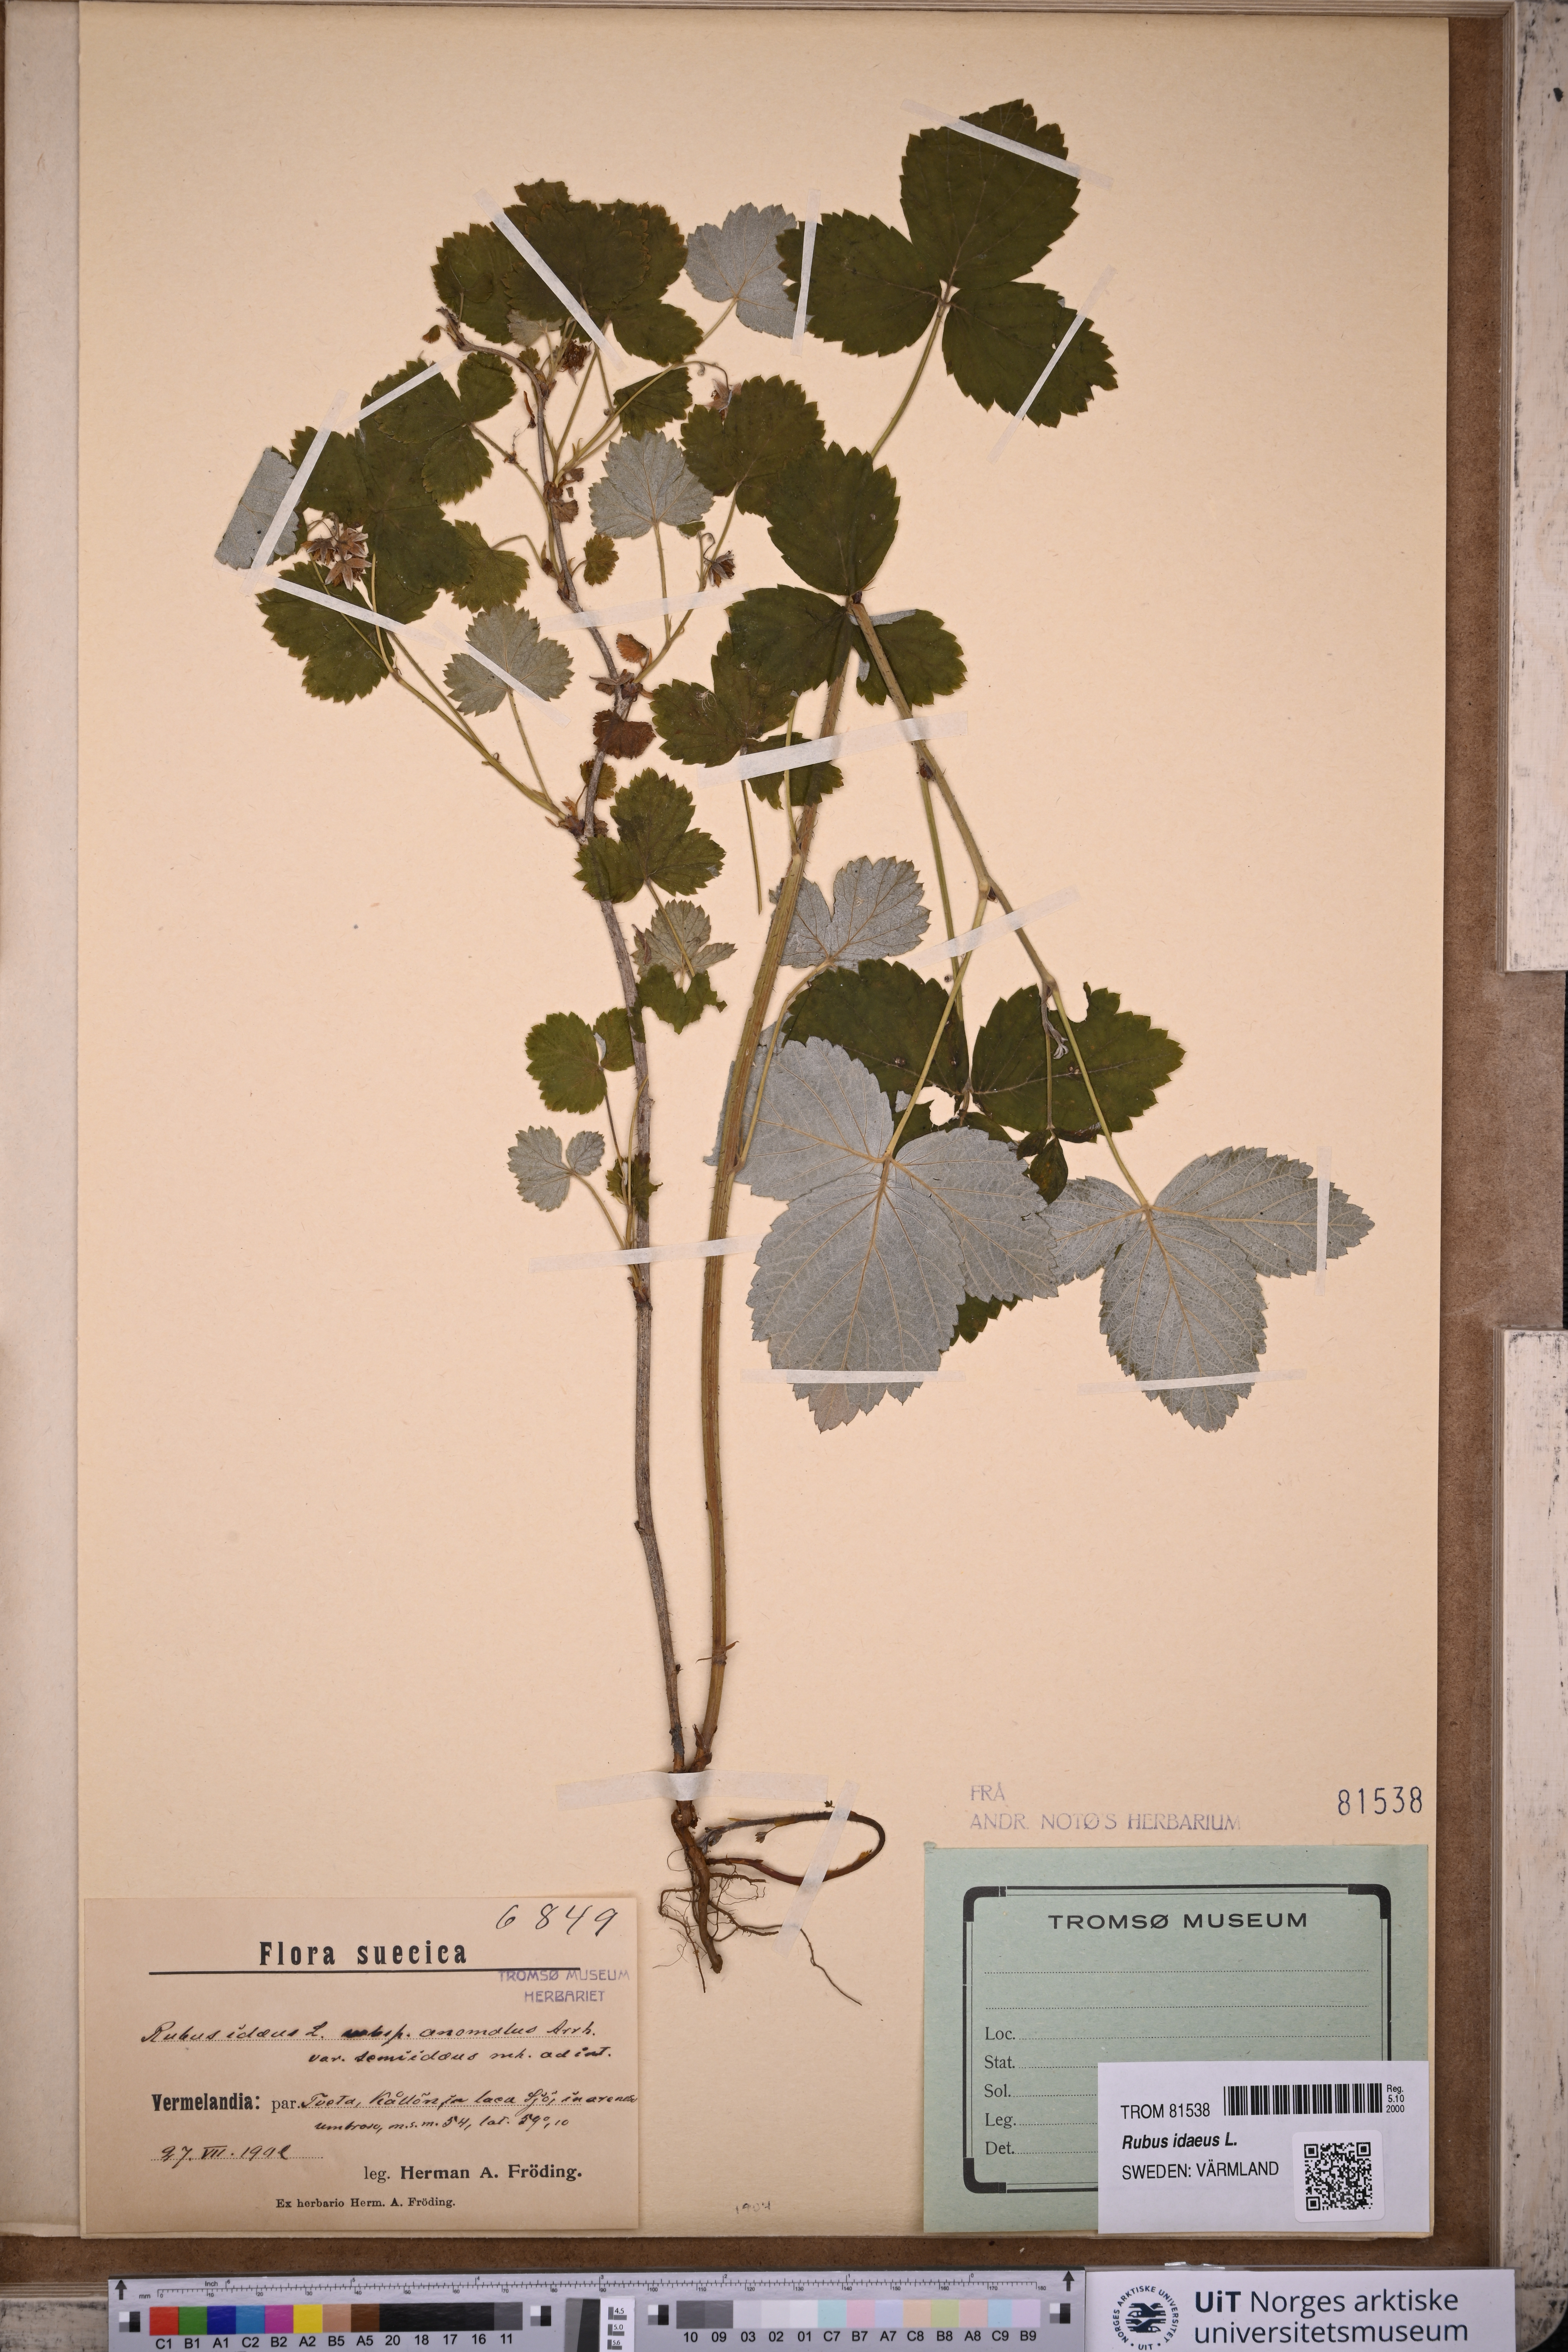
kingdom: Plantae
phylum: Tracheophyta
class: Magnoliopsida
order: Rosales
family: Rosaceae
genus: Rubus
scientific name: Rubus idaeus
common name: Raspberry
